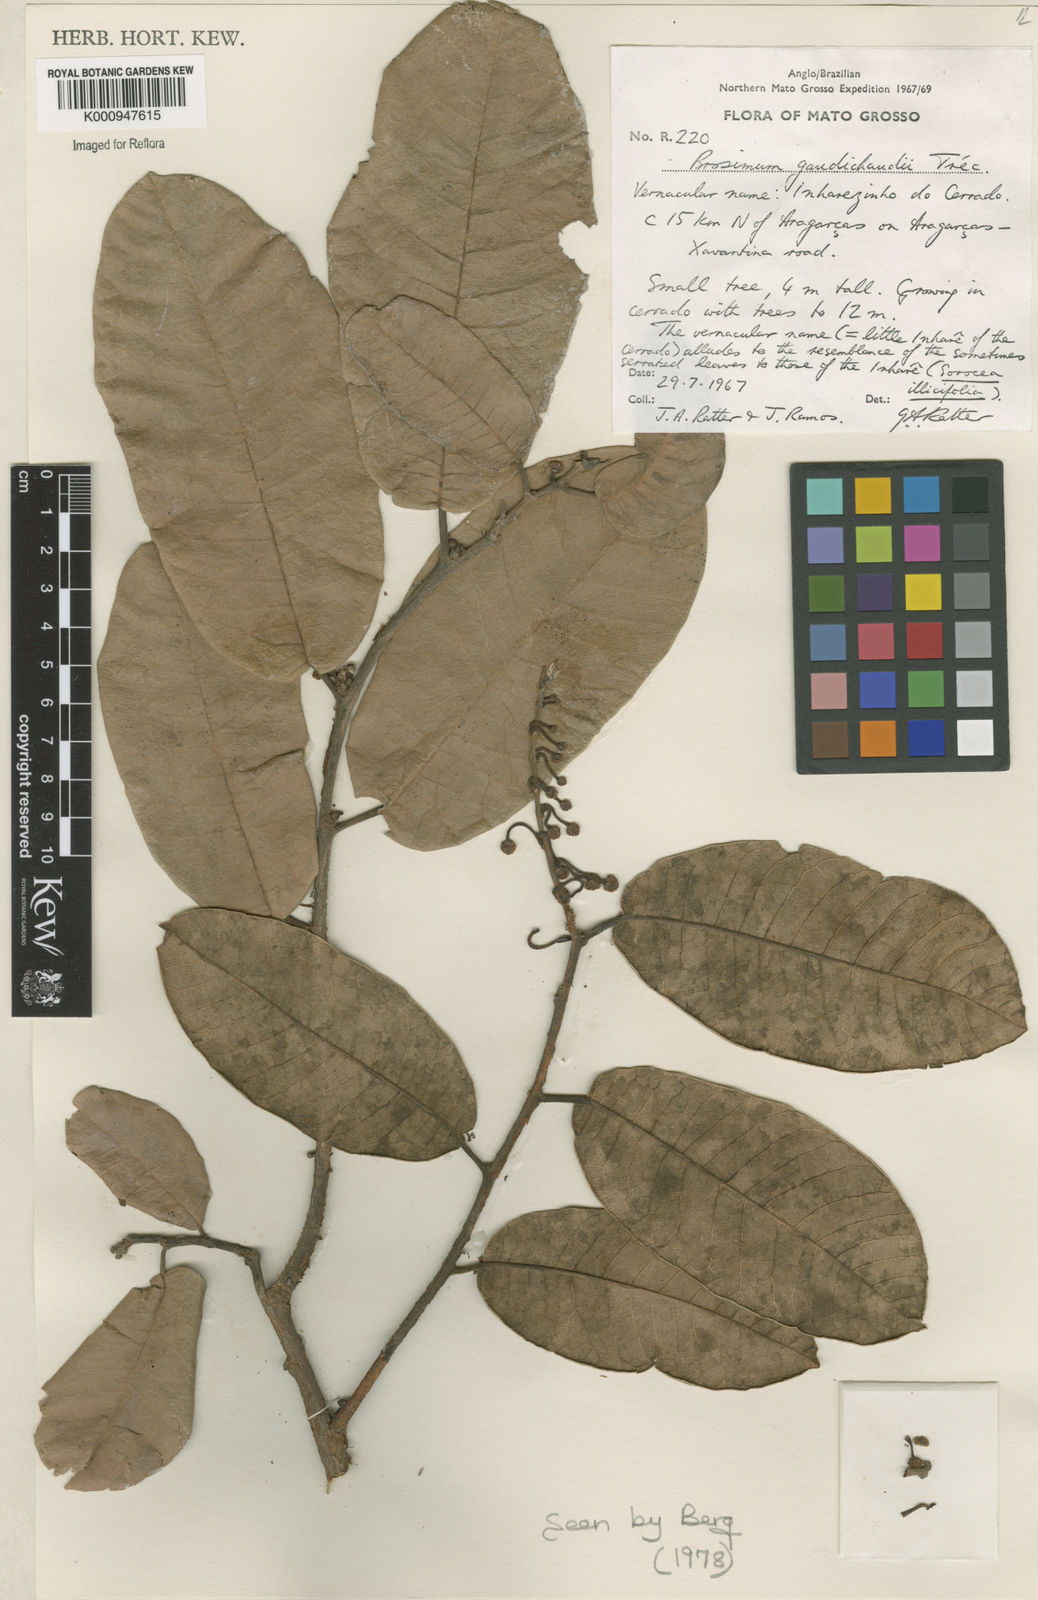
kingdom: Plantae
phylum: Tracheophyta
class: Magnoliopsida
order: Rosales
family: Moraceae
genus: Brosimum
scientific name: Brosimum
